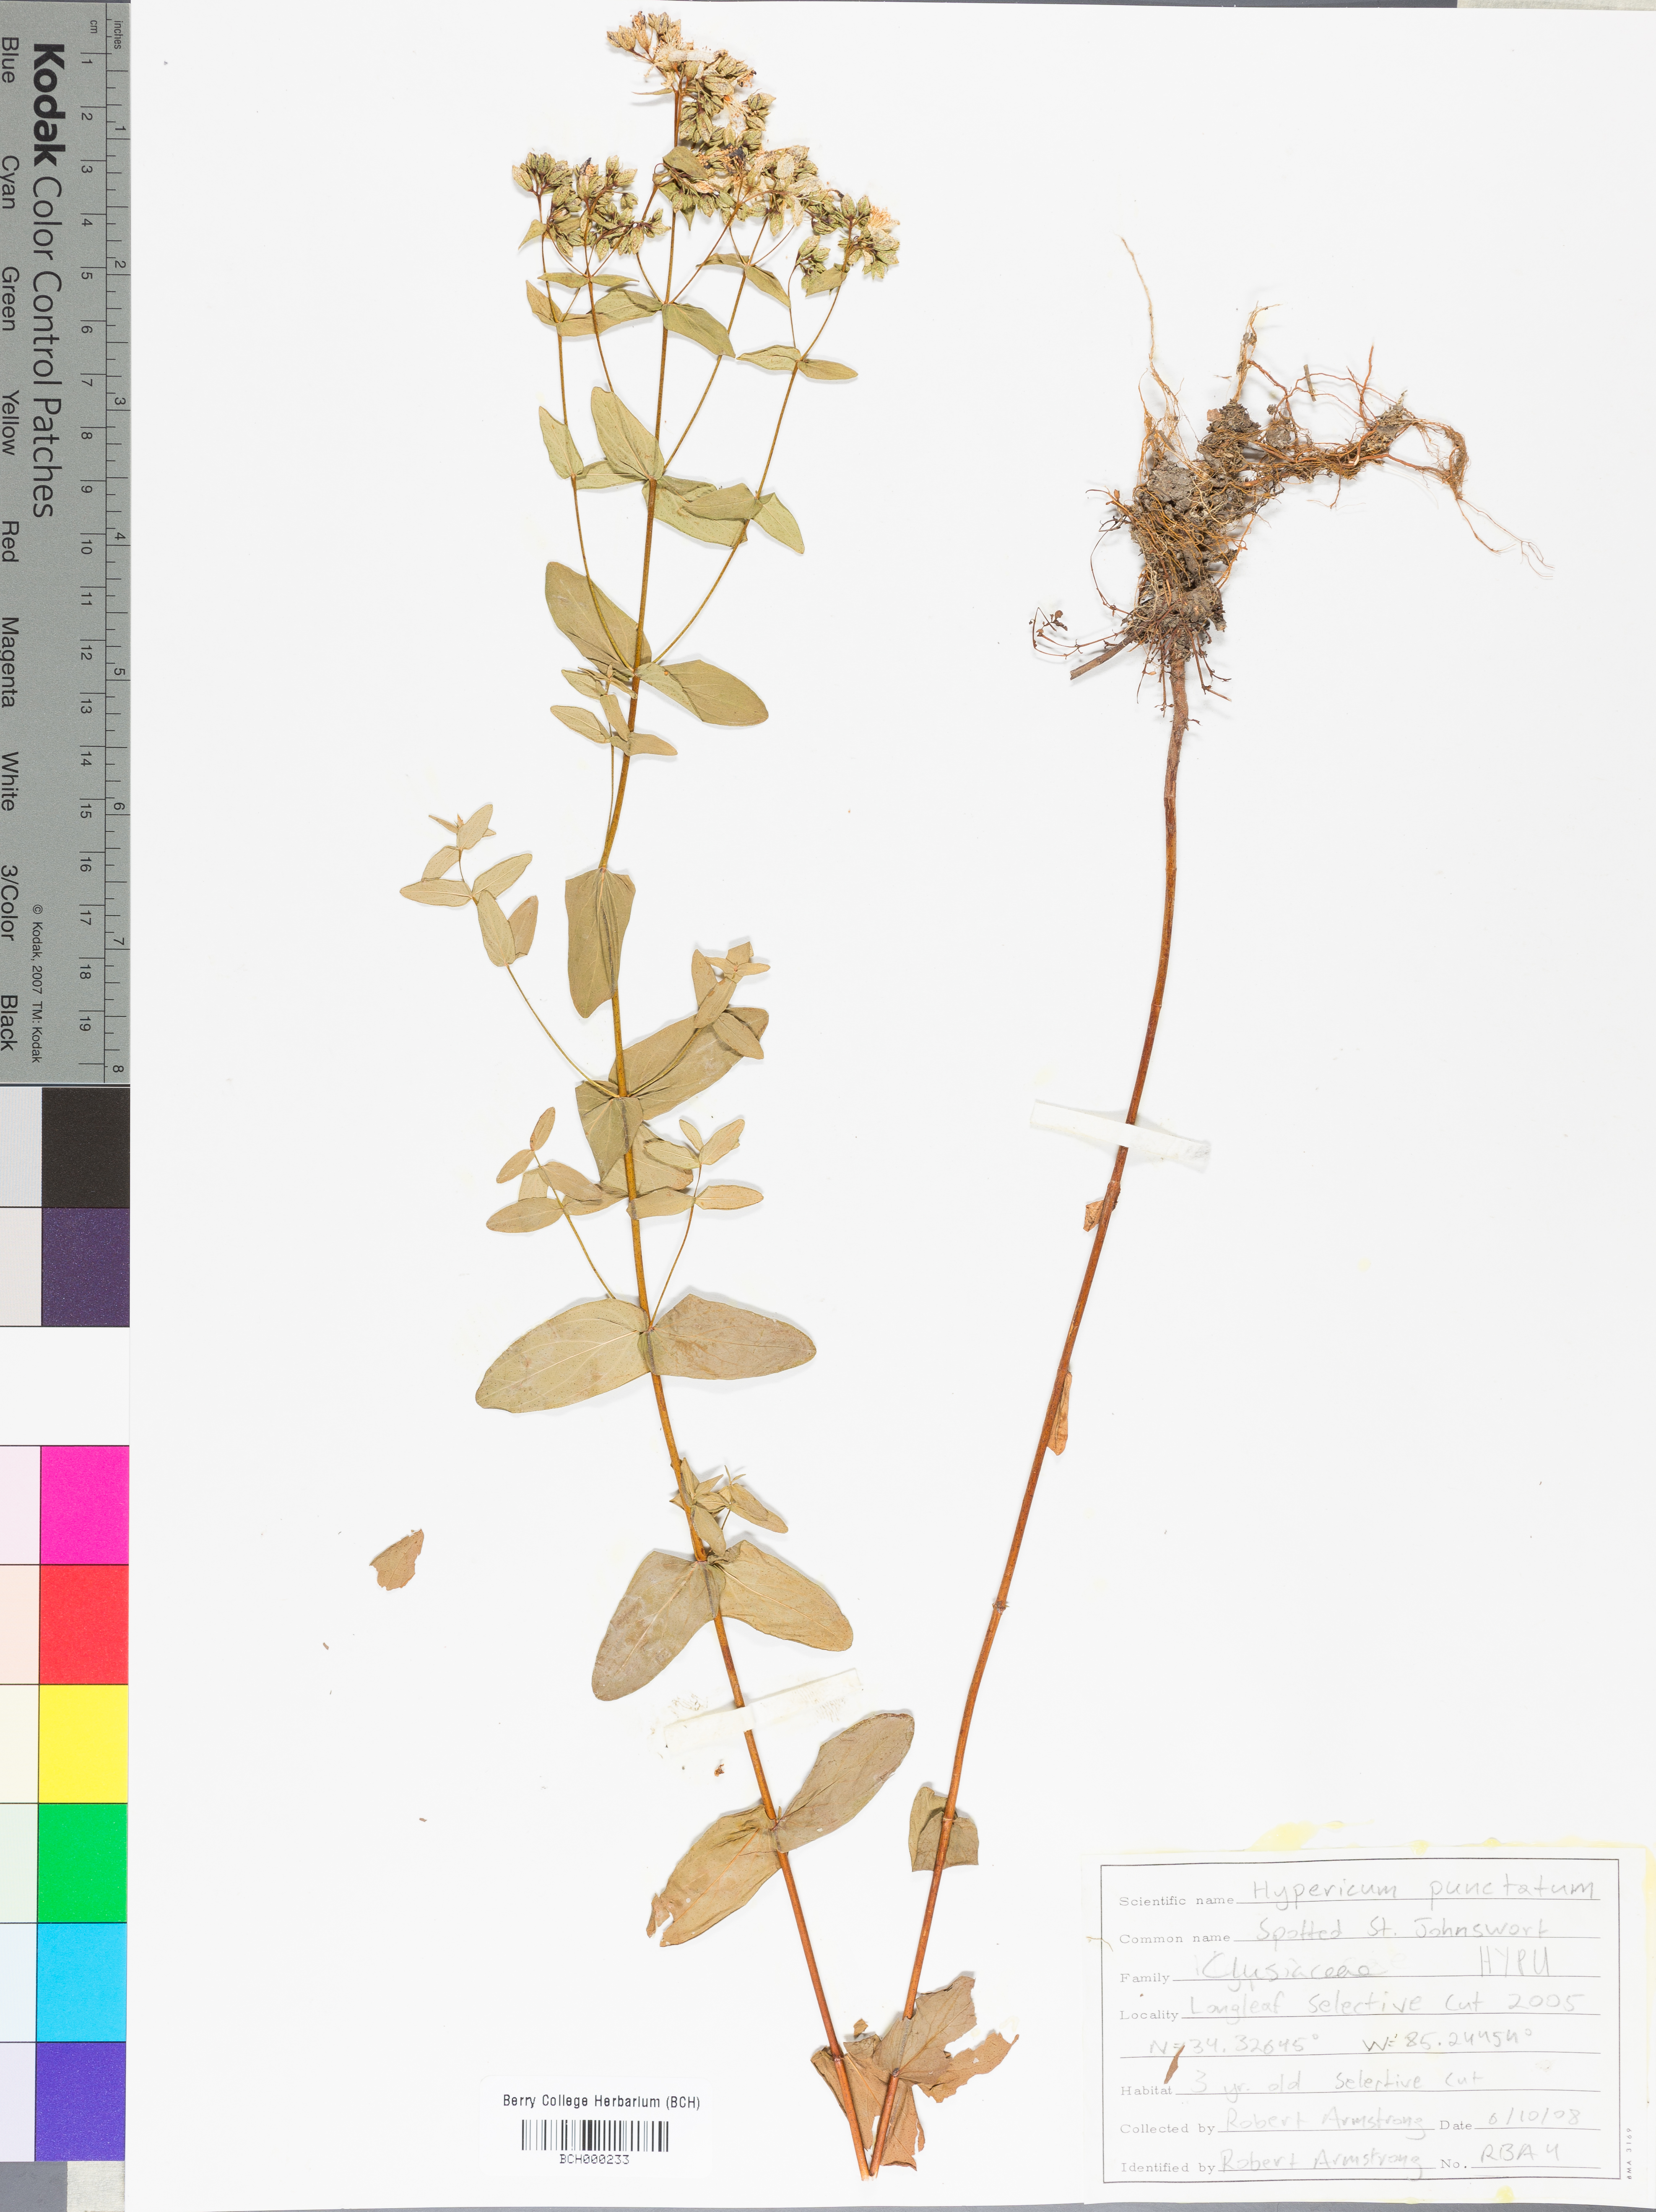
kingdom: Plantae
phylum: Tracheophyta
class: Magnoliopsida
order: Malpighiales
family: Hypericaceae
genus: Hypericum
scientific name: Hypericum punctatum
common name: Spotted st. john's-wort
